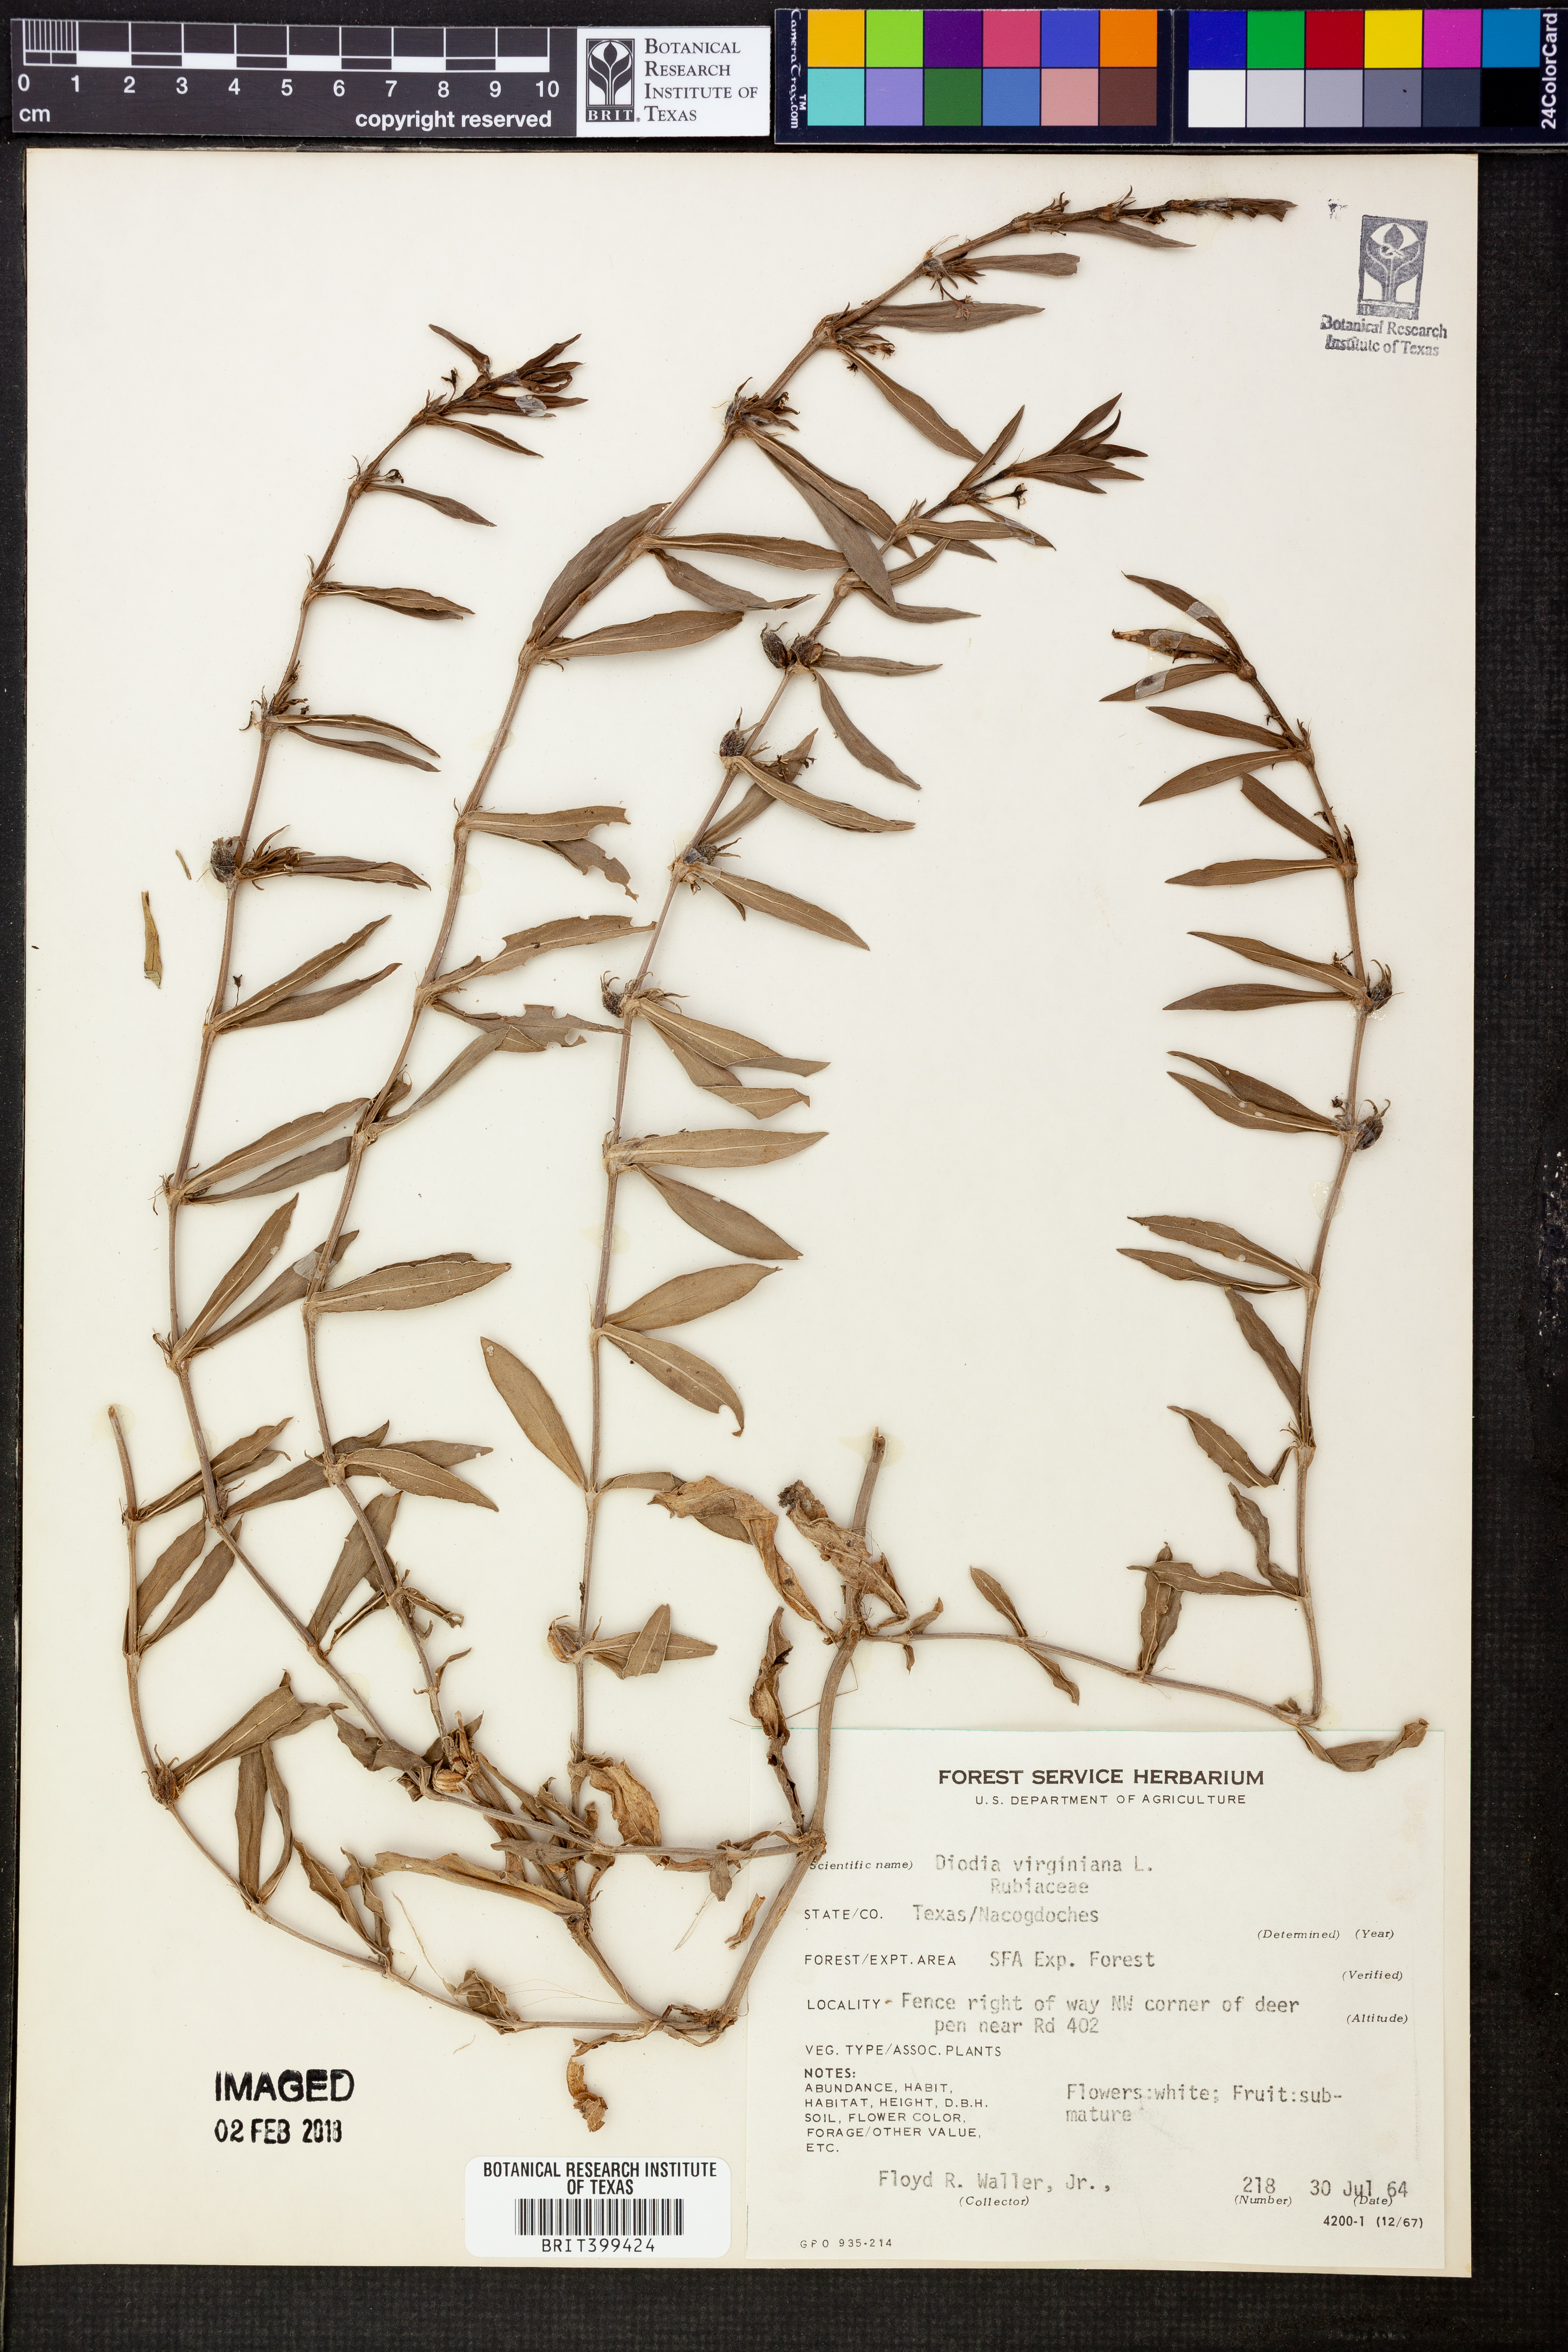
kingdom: Plantae
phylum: Tracheophyta
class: Magnoliopsida
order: Gentianales
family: Rubiaceae
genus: Diodia
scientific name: Diodia virginiana
